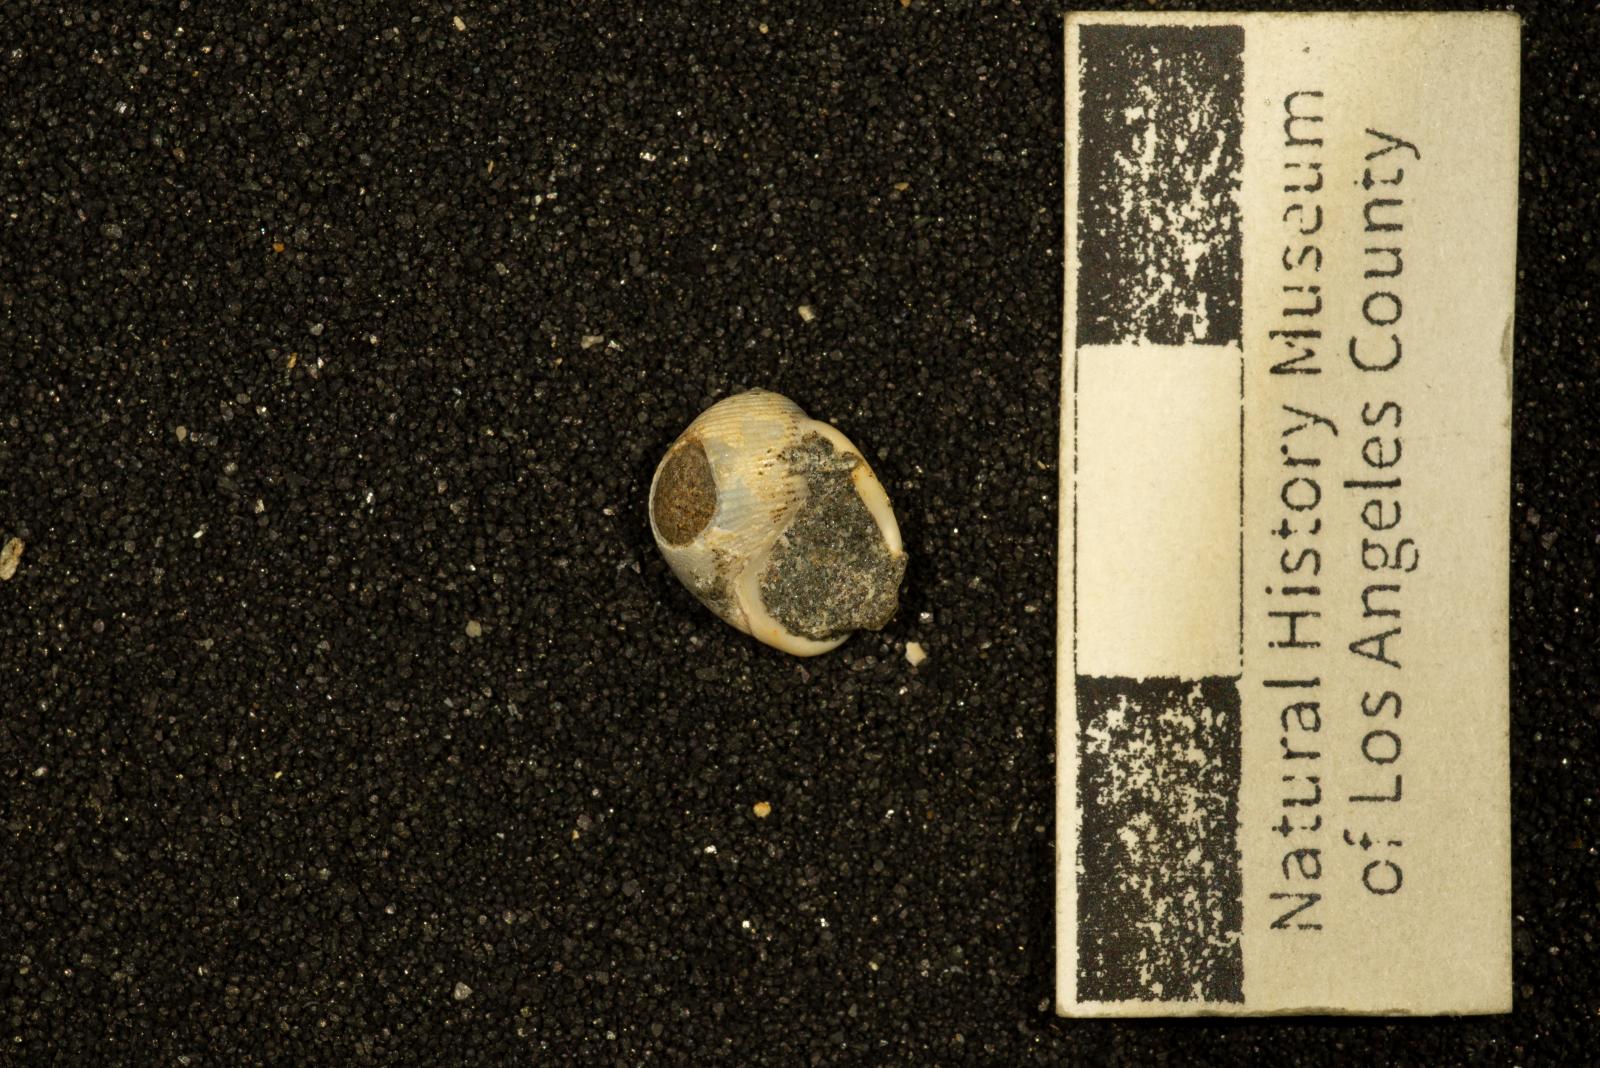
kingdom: Animalia
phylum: Mollusca
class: Gastropoda
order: Cephalaspidea
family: Ringiculidae
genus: Biplica
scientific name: Biplica heteroplicata
